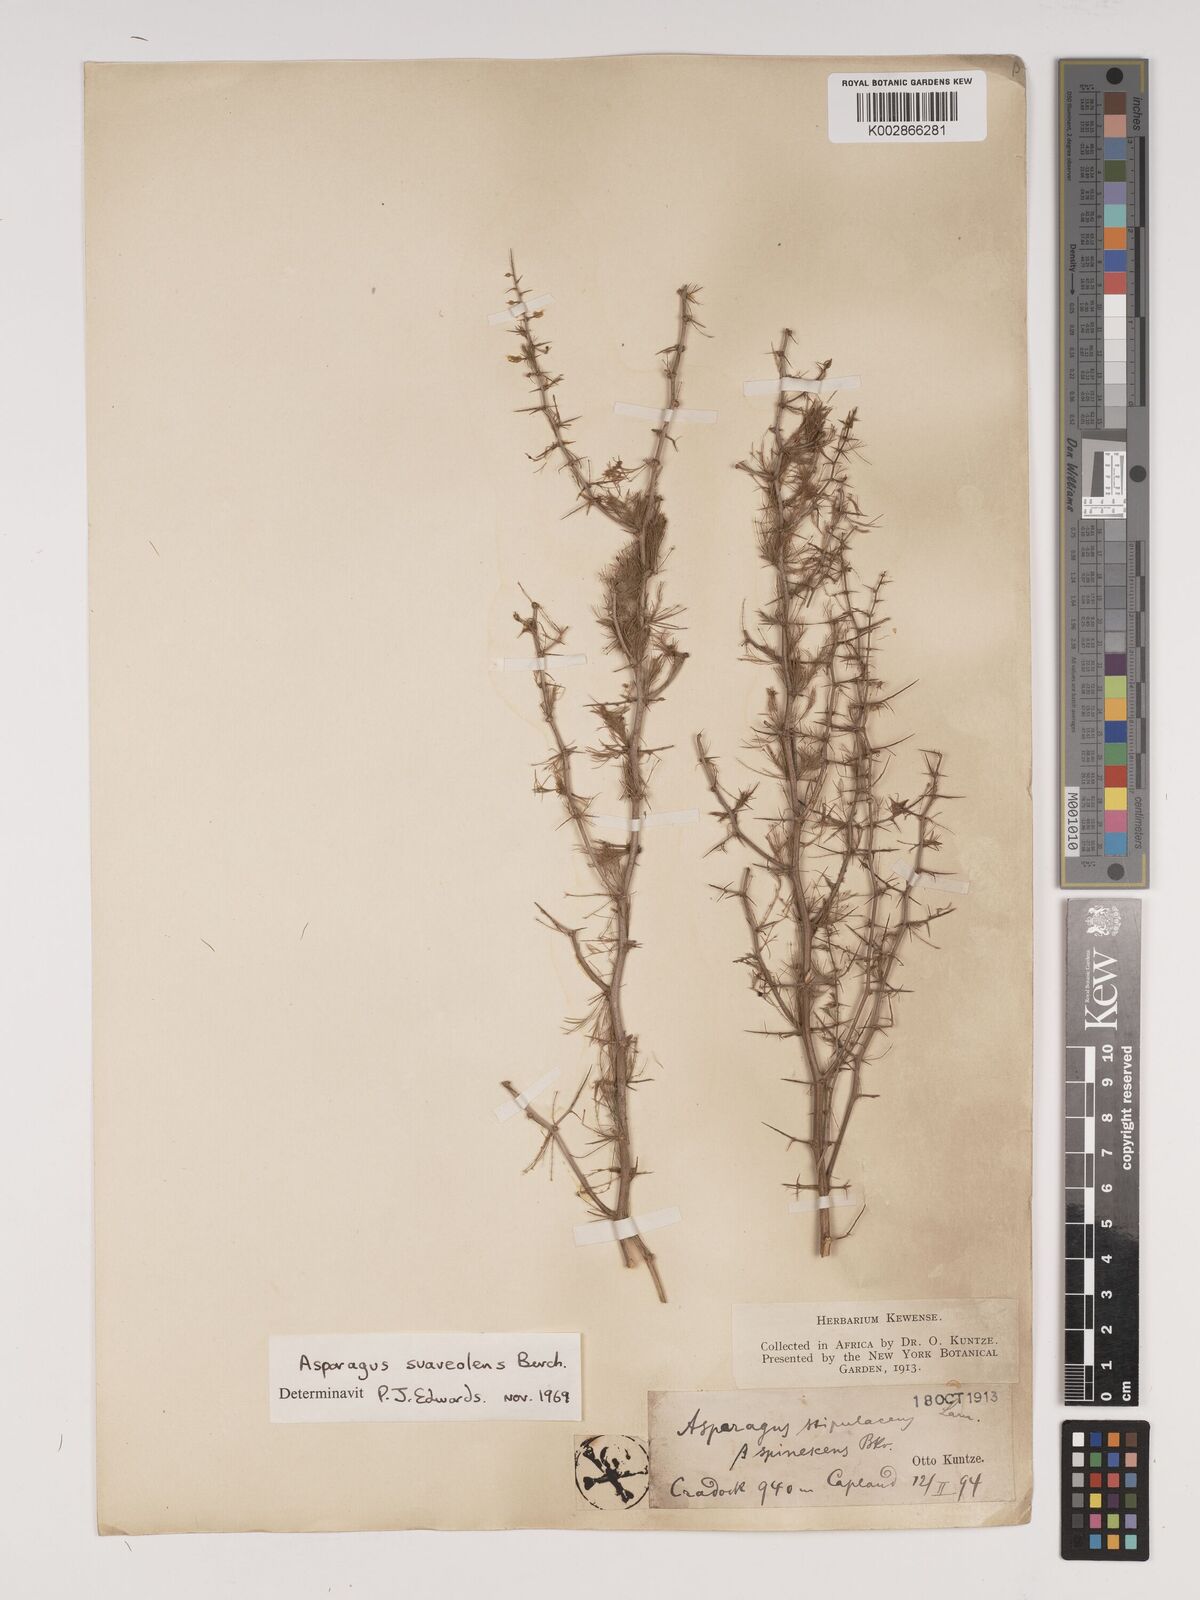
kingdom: Plantae
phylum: Tracheophyta
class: Liliopsida
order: Asparagales
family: Asparagaceae
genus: Asparagus
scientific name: Asparagus suaveolens
